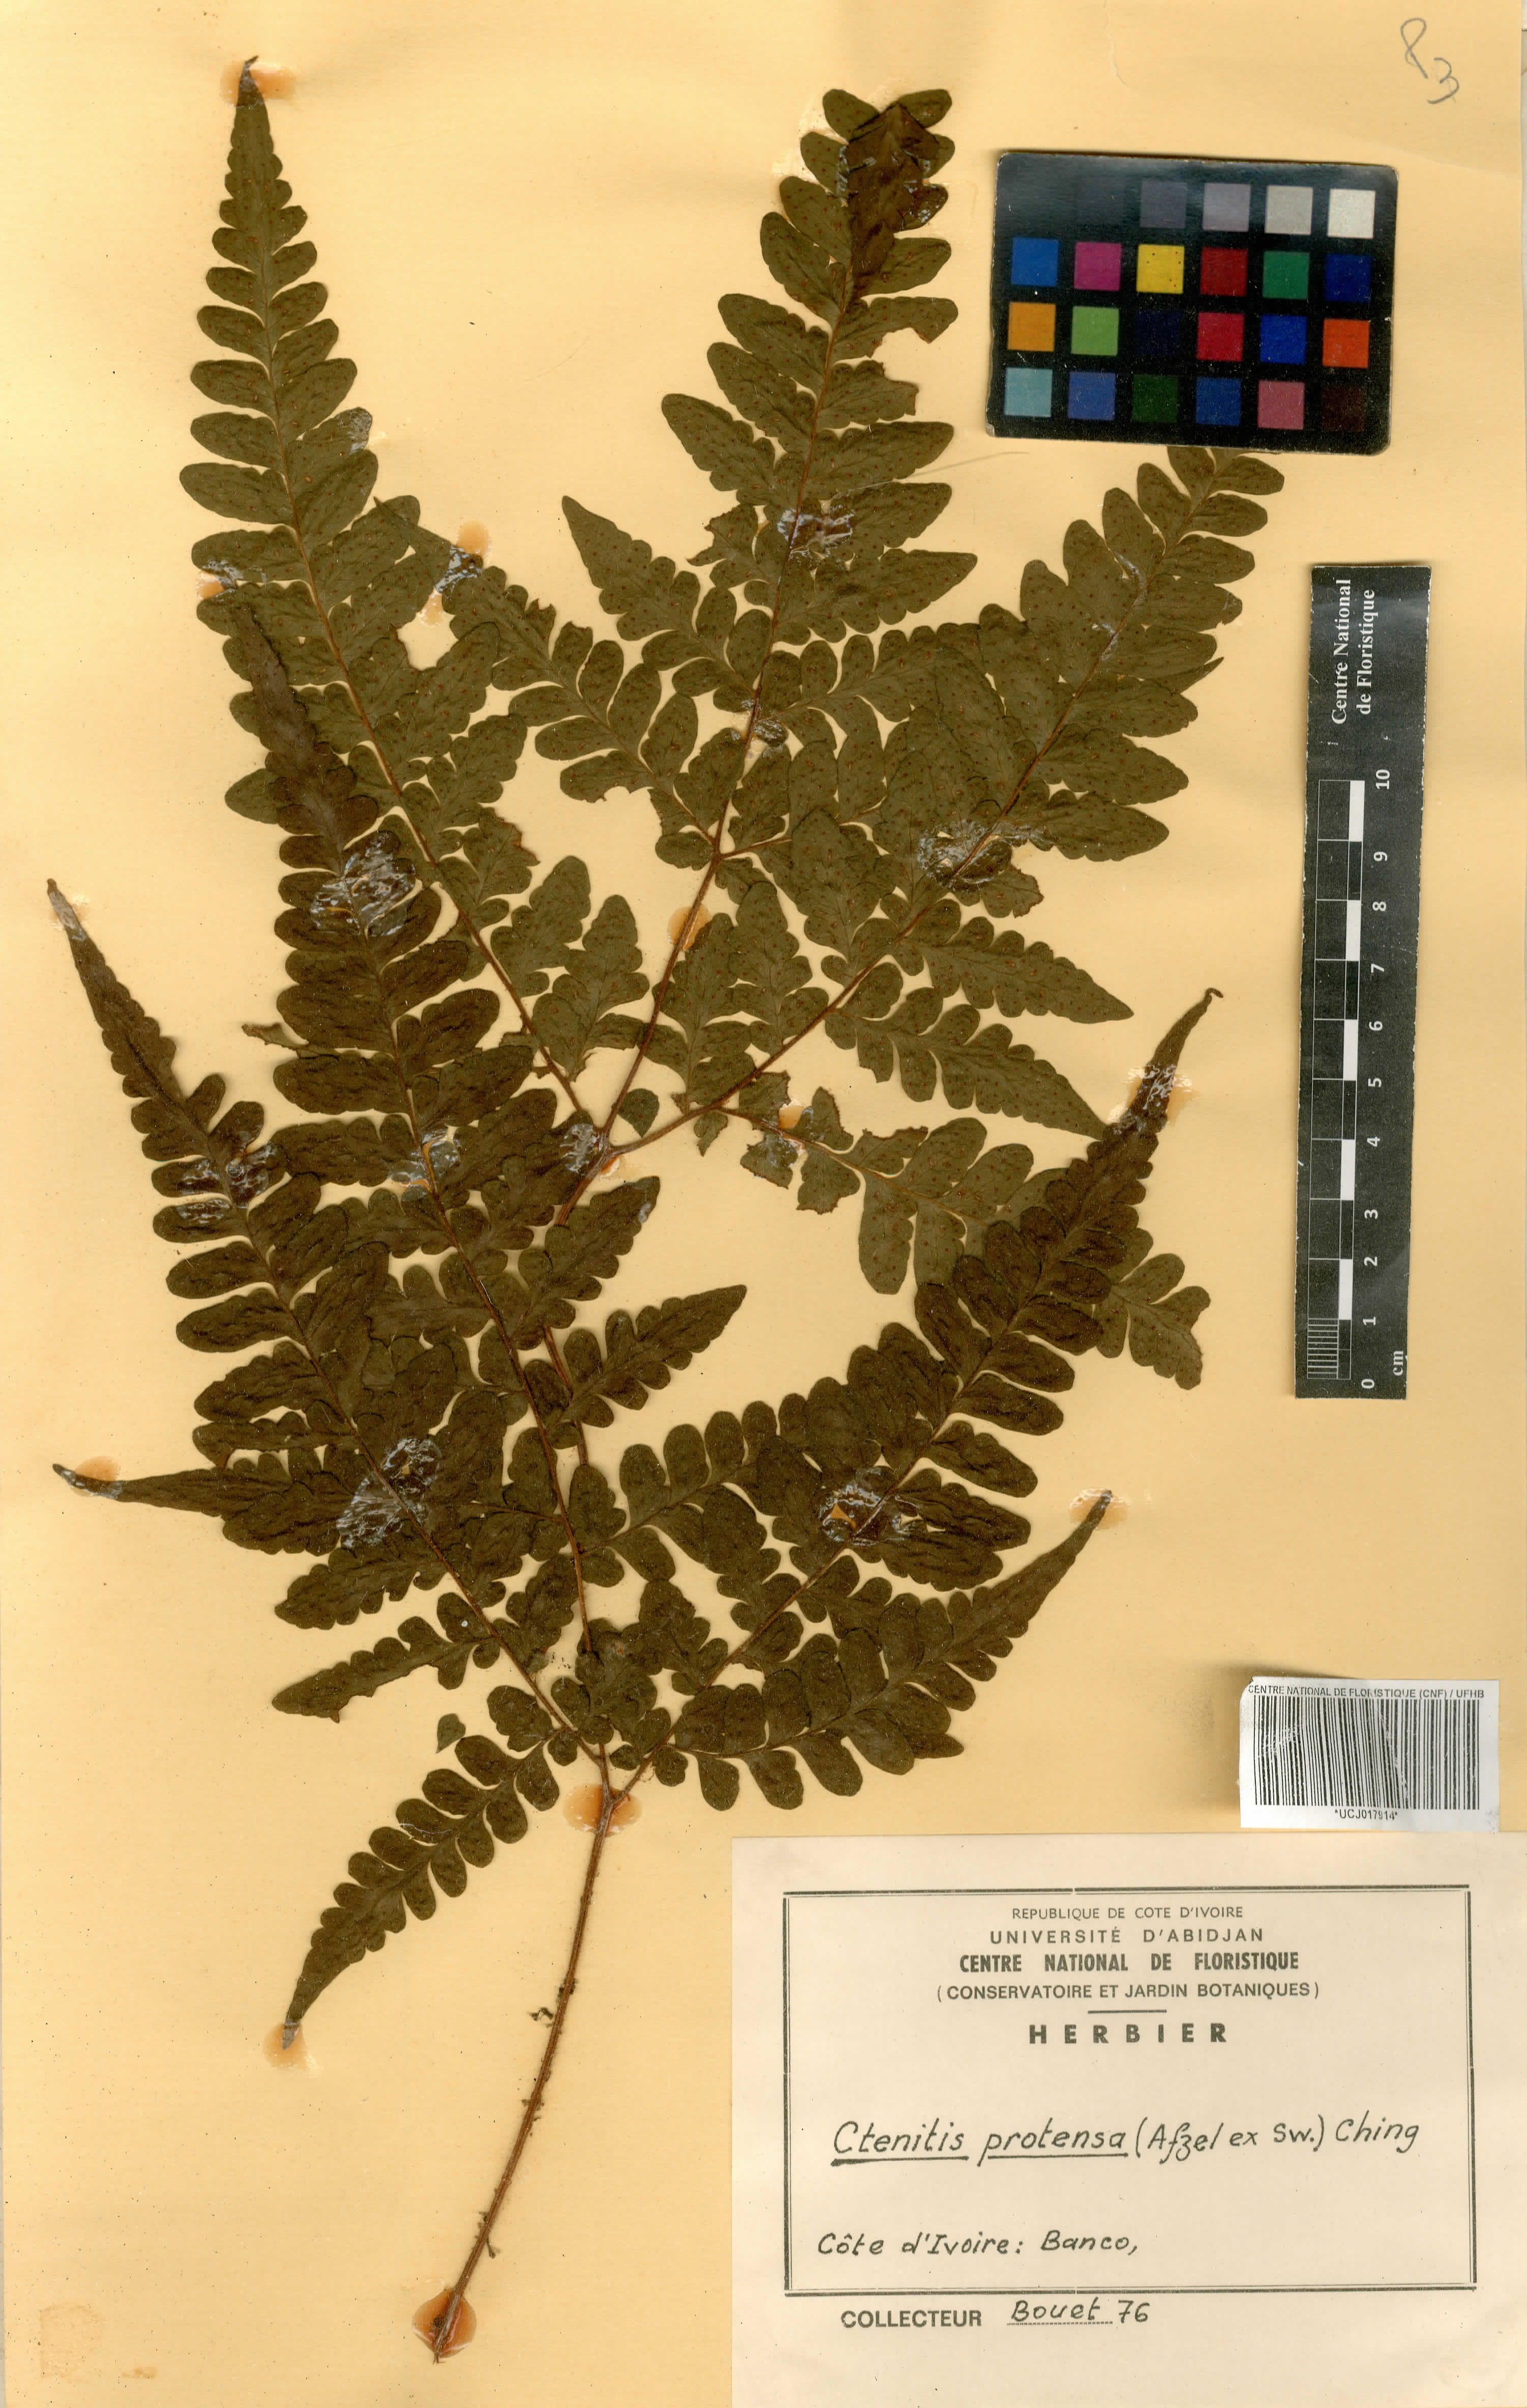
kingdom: Plantae
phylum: Tracheophyta
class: Polypodiopsida
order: Polypodiales
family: Tectariaceae
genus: Triplophyllum
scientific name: Triplophyllum protensum
